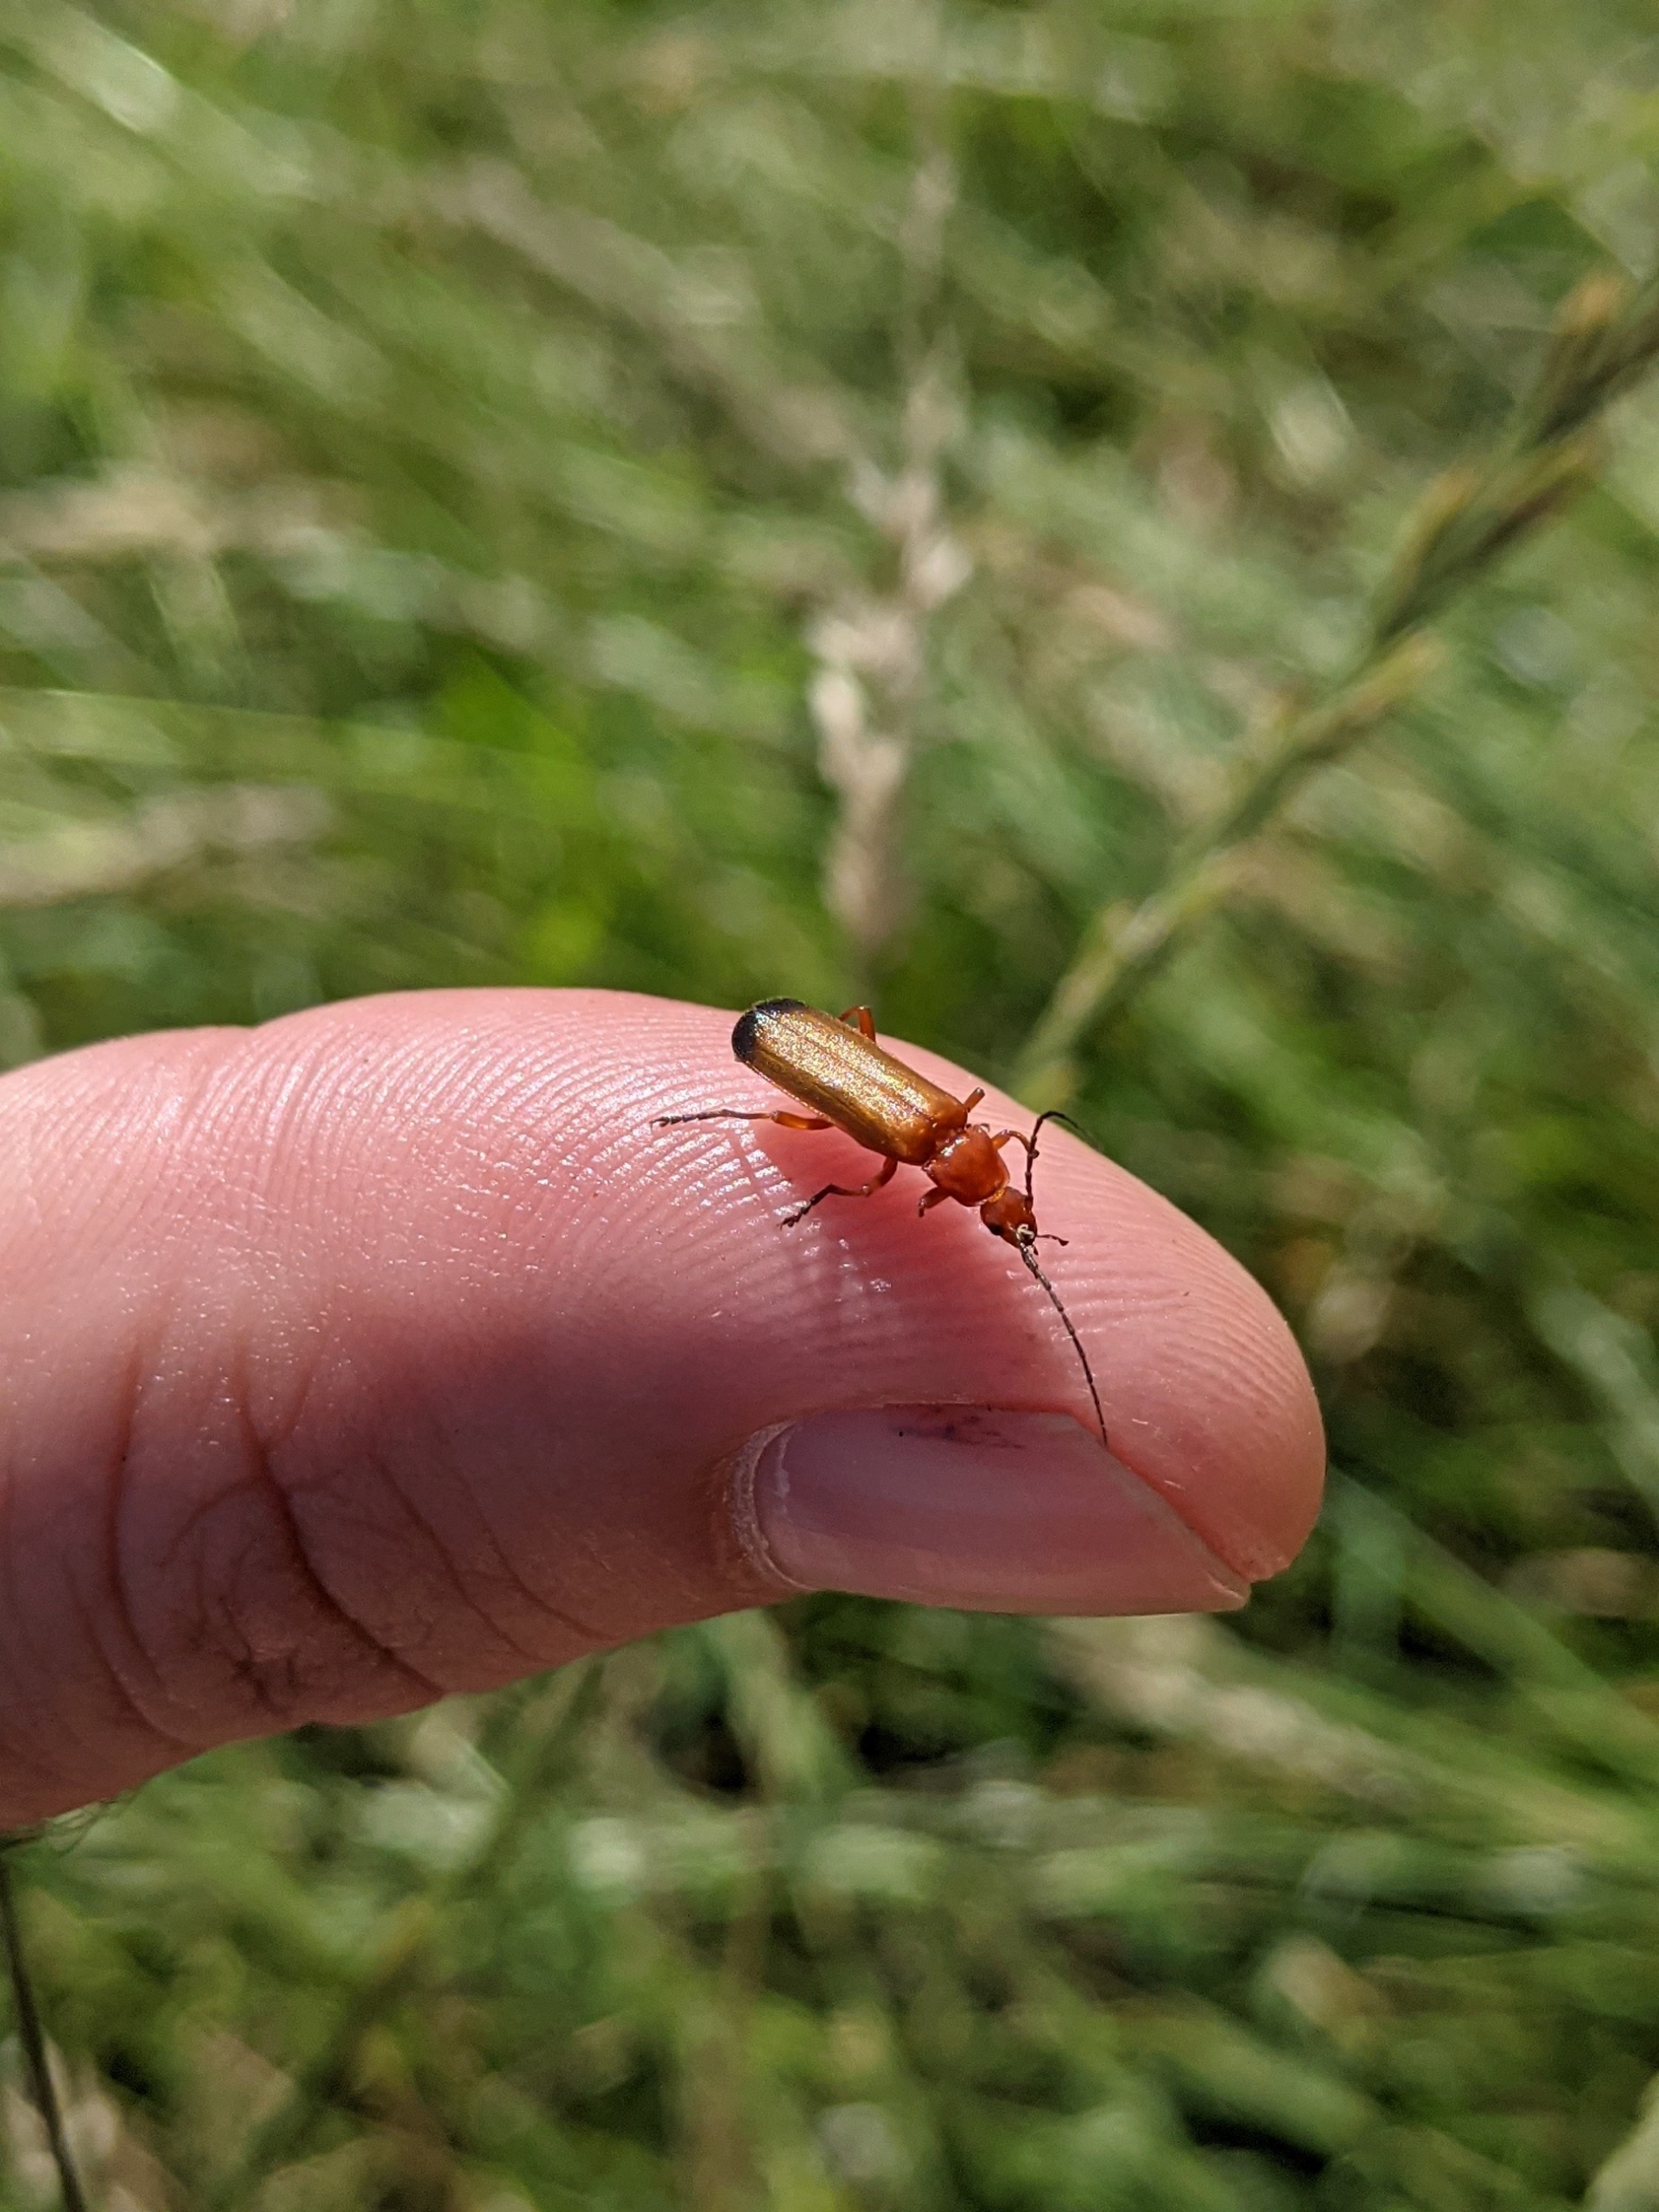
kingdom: Animalia
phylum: Arthropoda
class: Insecta
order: Coleoptera
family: Cantharidae
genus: Rhagonycha
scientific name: Rhagonycha fulva
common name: Præstebille
